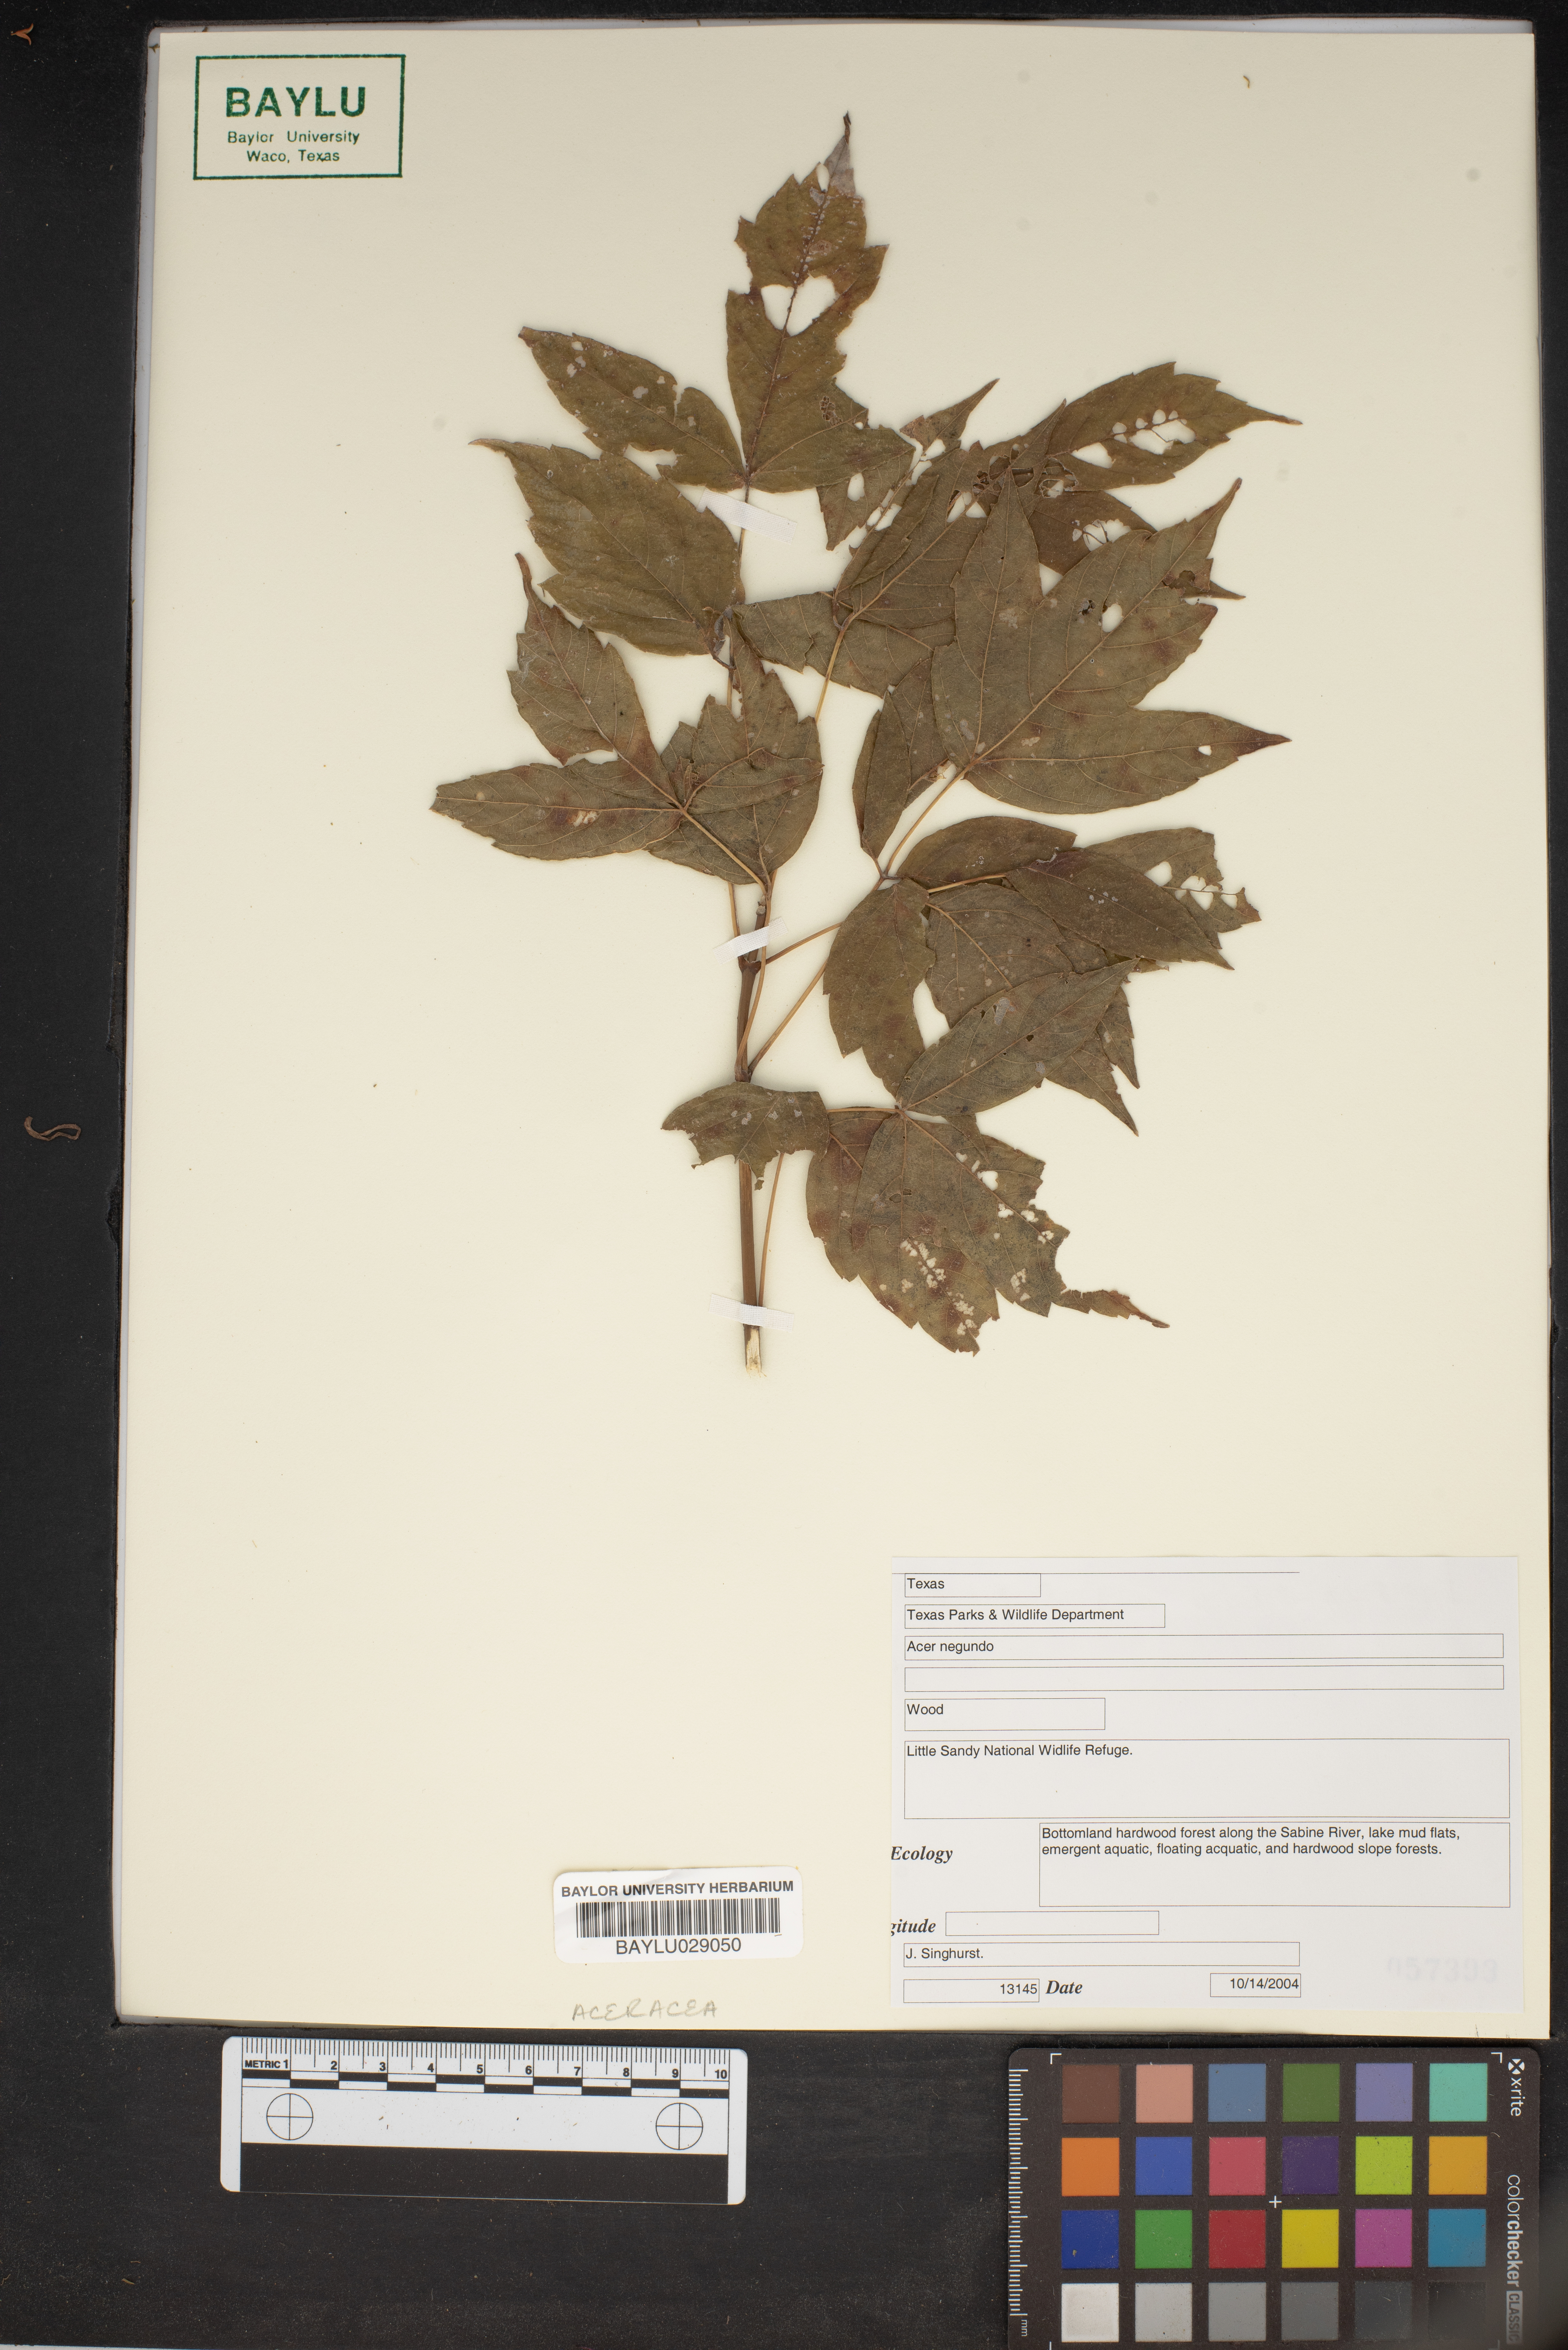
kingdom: Plantae
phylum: Tracheophyta
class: Magnoliopsida
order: Sapindales
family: Sapindaceae
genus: Acer
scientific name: Acer negundo
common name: Ashleaf maple
